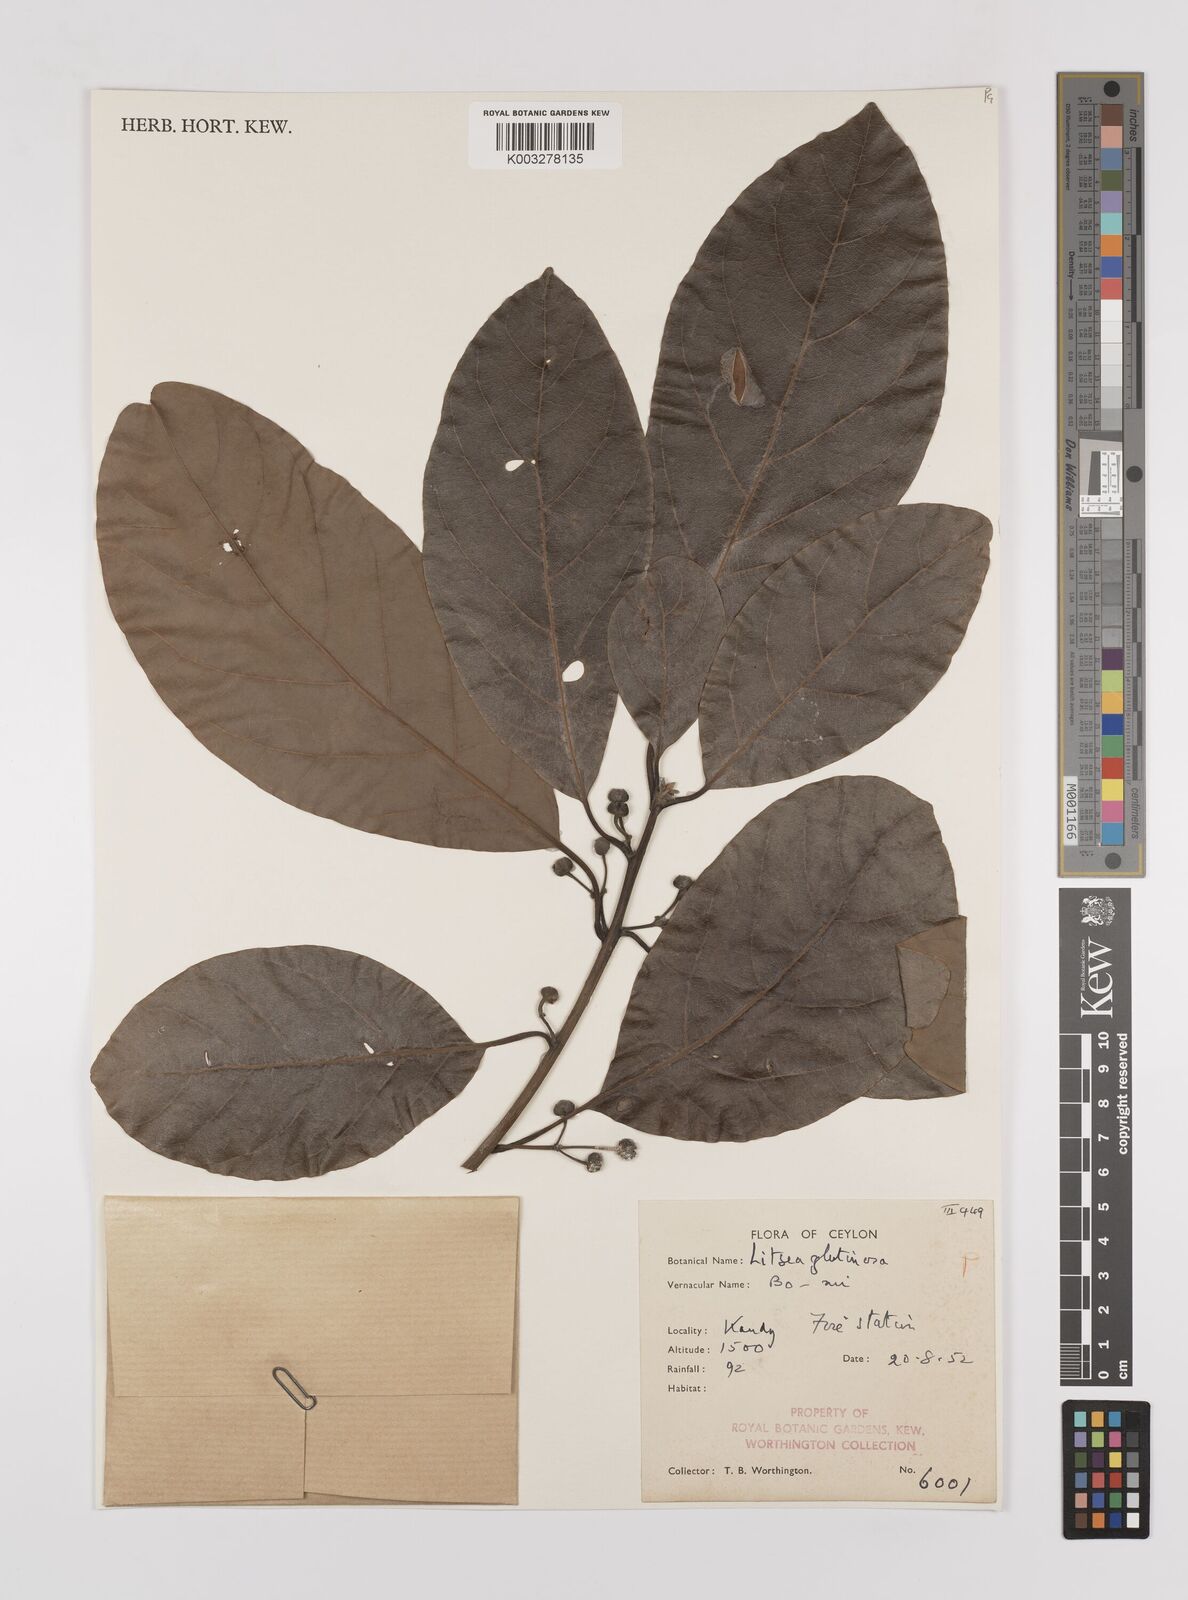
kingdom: Plantae
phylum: Tracheophyta
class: Magnoliopsida
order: Laurales
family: Lauraceae
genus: Litsea
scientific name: Litsea
